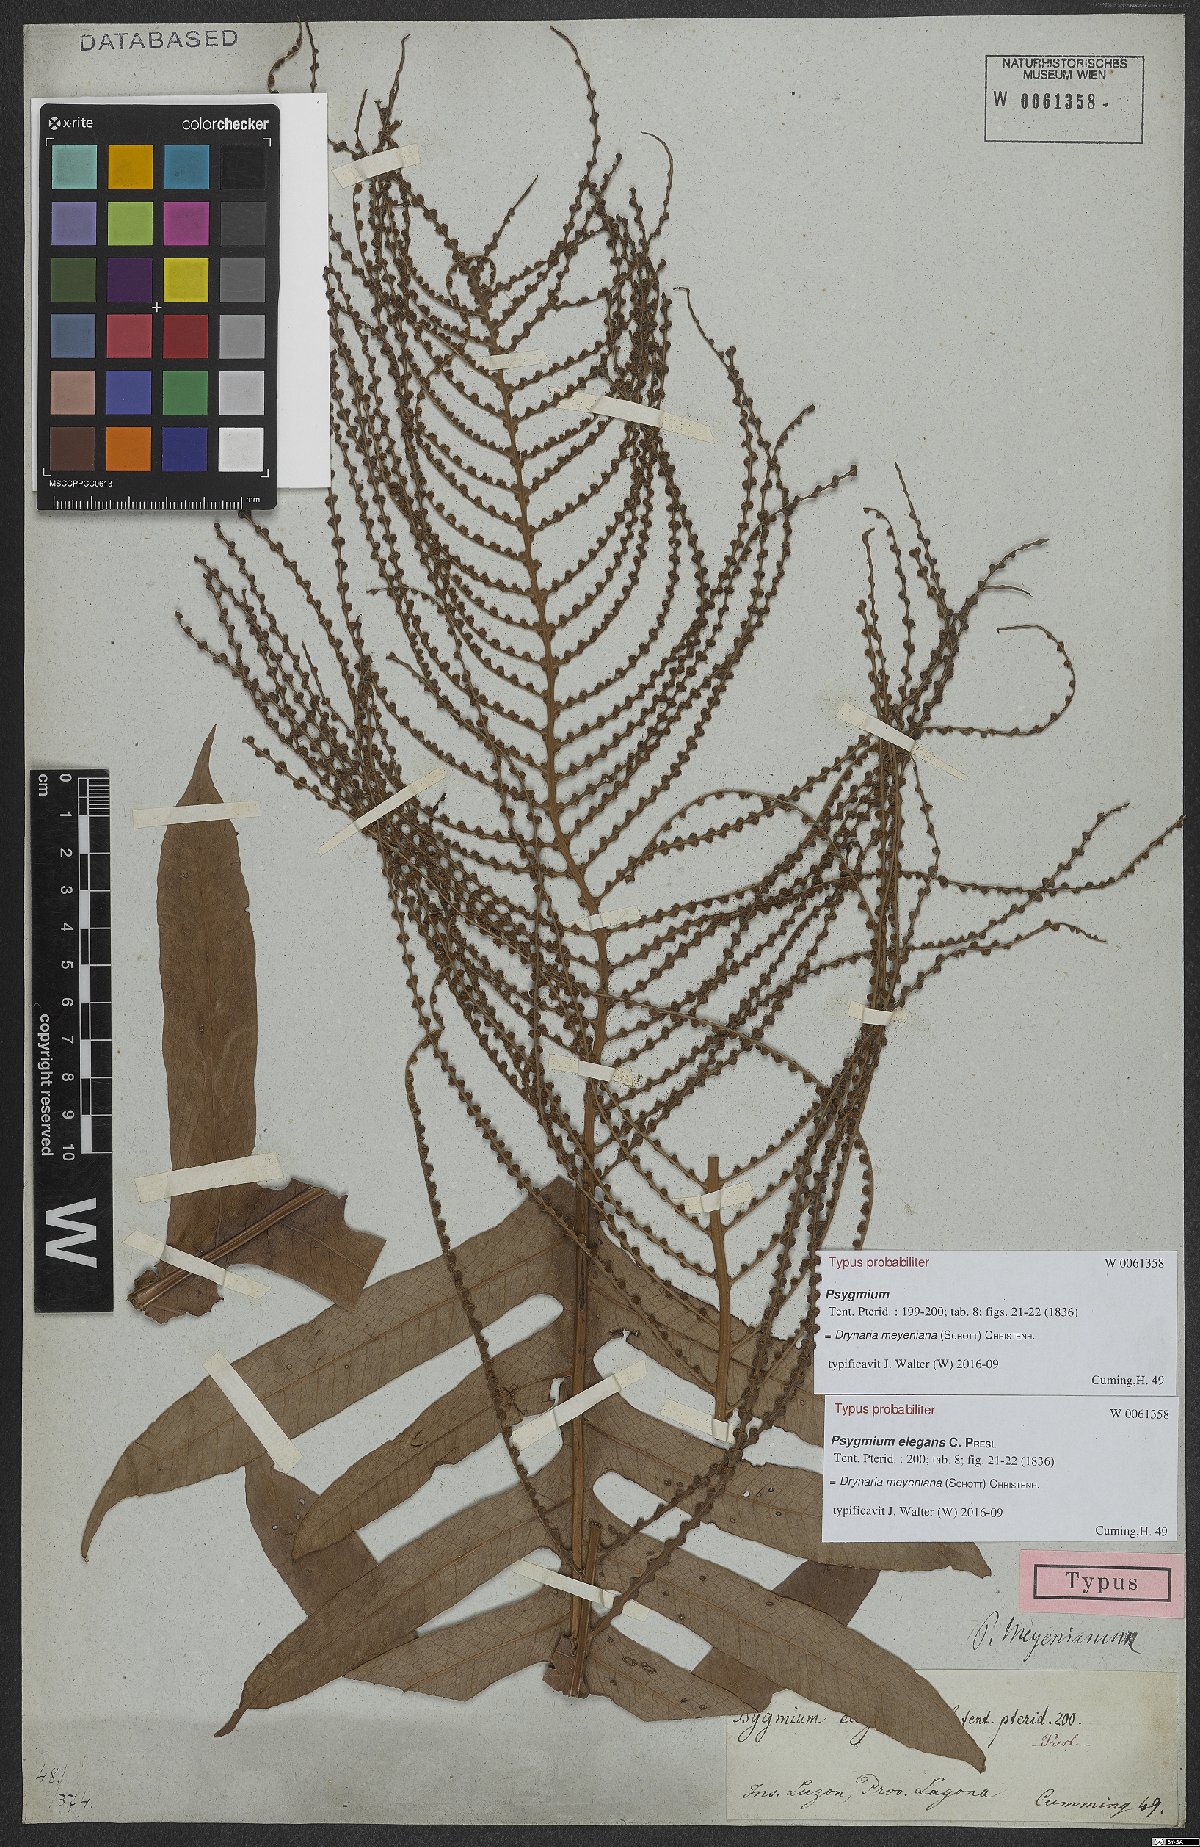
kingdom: Plantae
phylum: Tracheophyta
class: Polypodiopsida
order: Polypodiales
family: Polypodiaceae
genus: Drynaria
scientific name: Drynaria meyeniana
